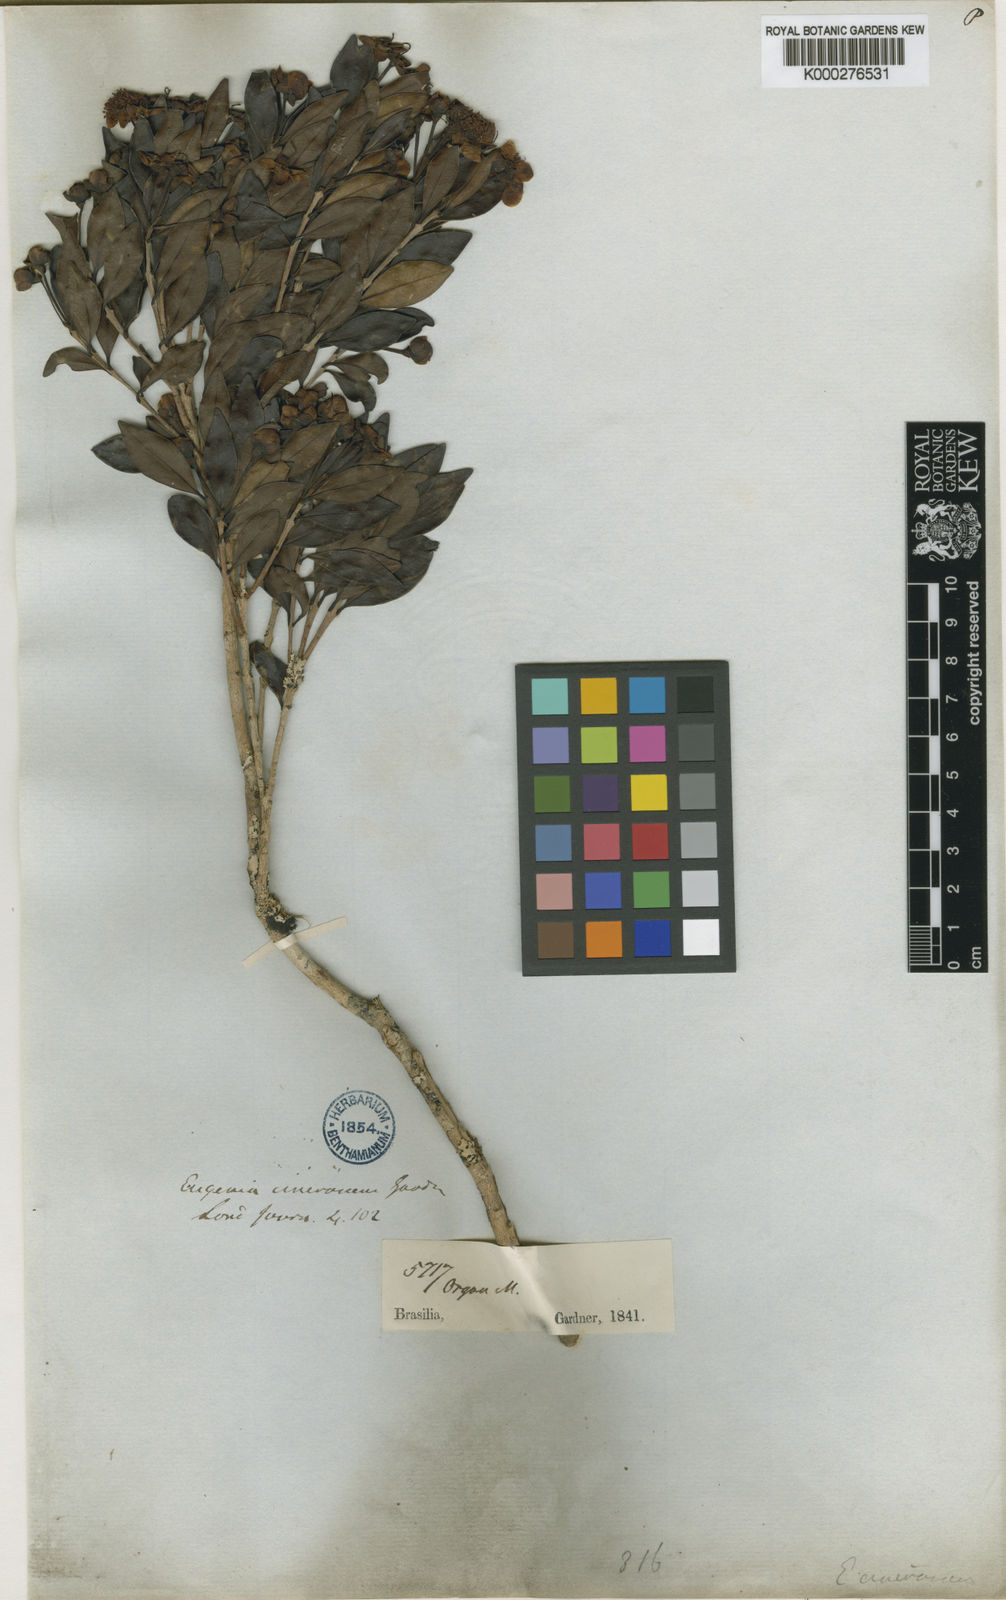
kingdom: Plantae
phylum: Tracheophyta
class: Magnoliopsida
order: Myrtales
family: Myrtaceae
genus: Eugenia
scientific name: Eugenia cinerascens
